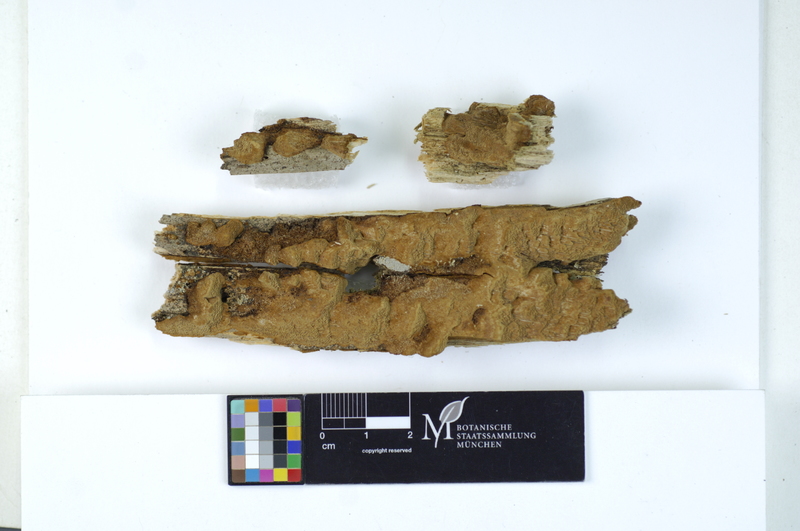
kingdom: Plantae
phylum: Tracheophyta
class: Pinopsida
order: Pinales
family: Pinaceae
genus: Picea
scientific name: Picea
